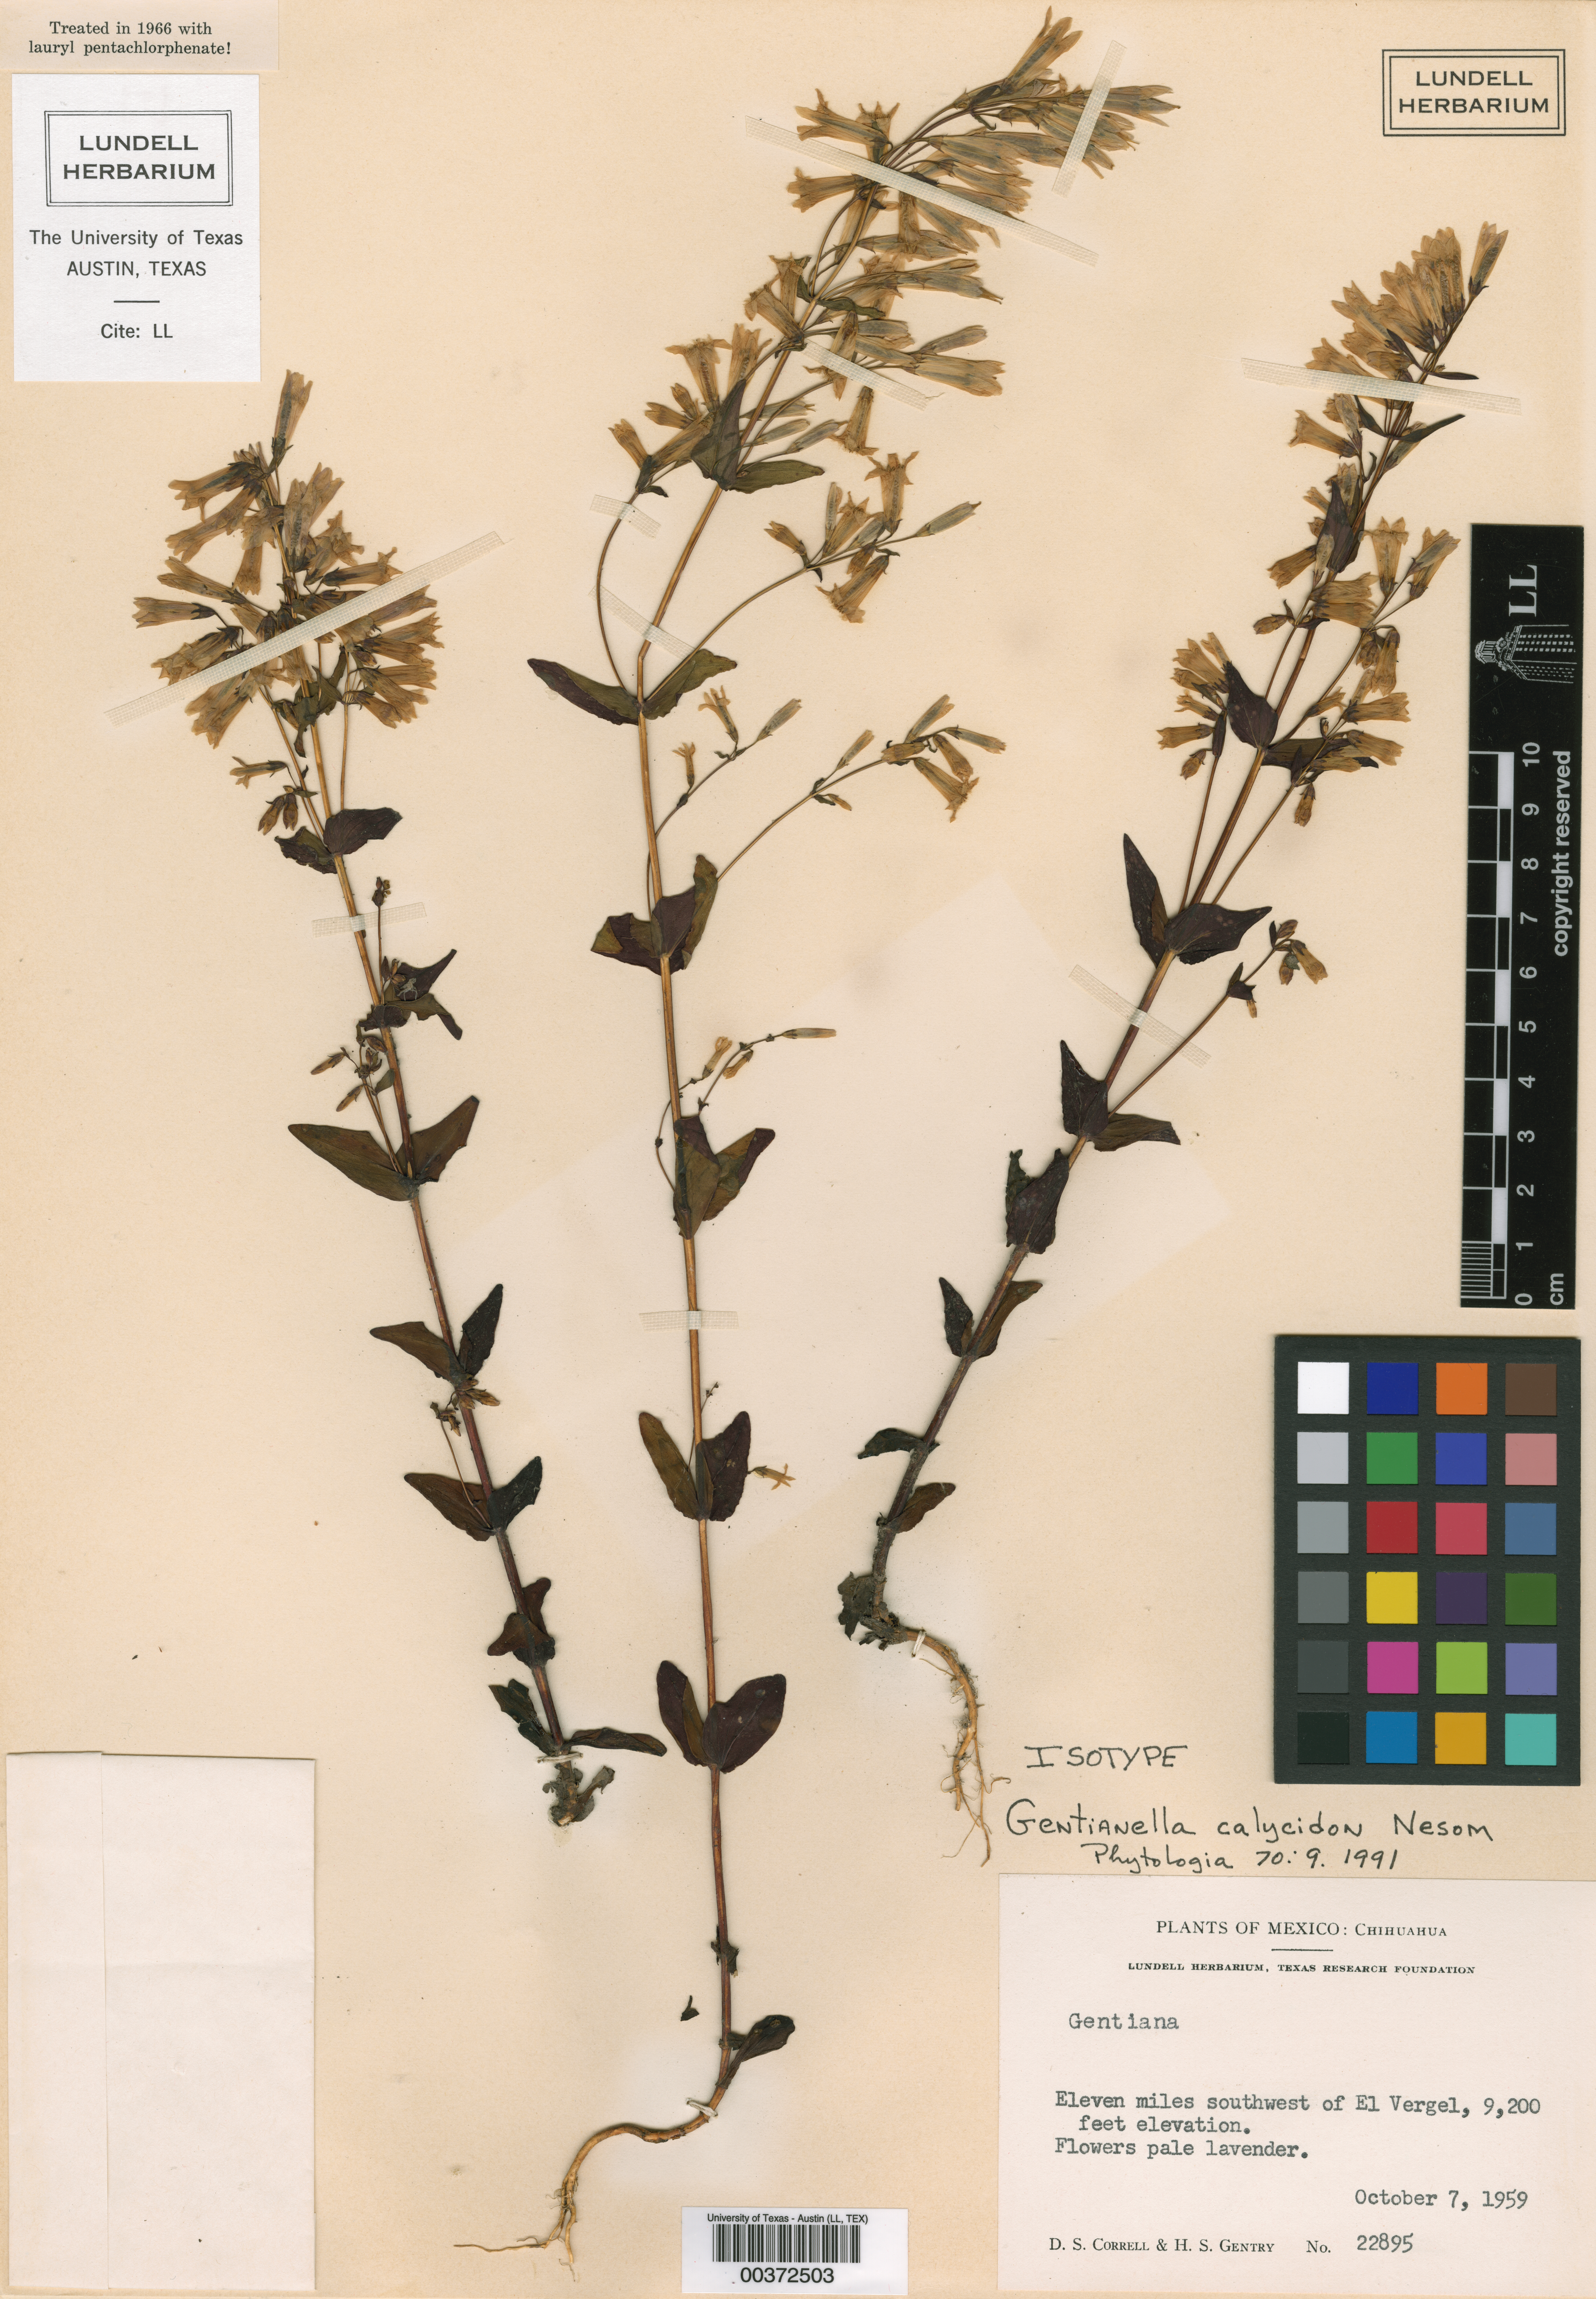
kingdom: Plantae
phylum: Tracheophyta
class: Magnoliopsida
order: Malpighiales
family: Hypericaceae
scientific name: Hypericaceae
